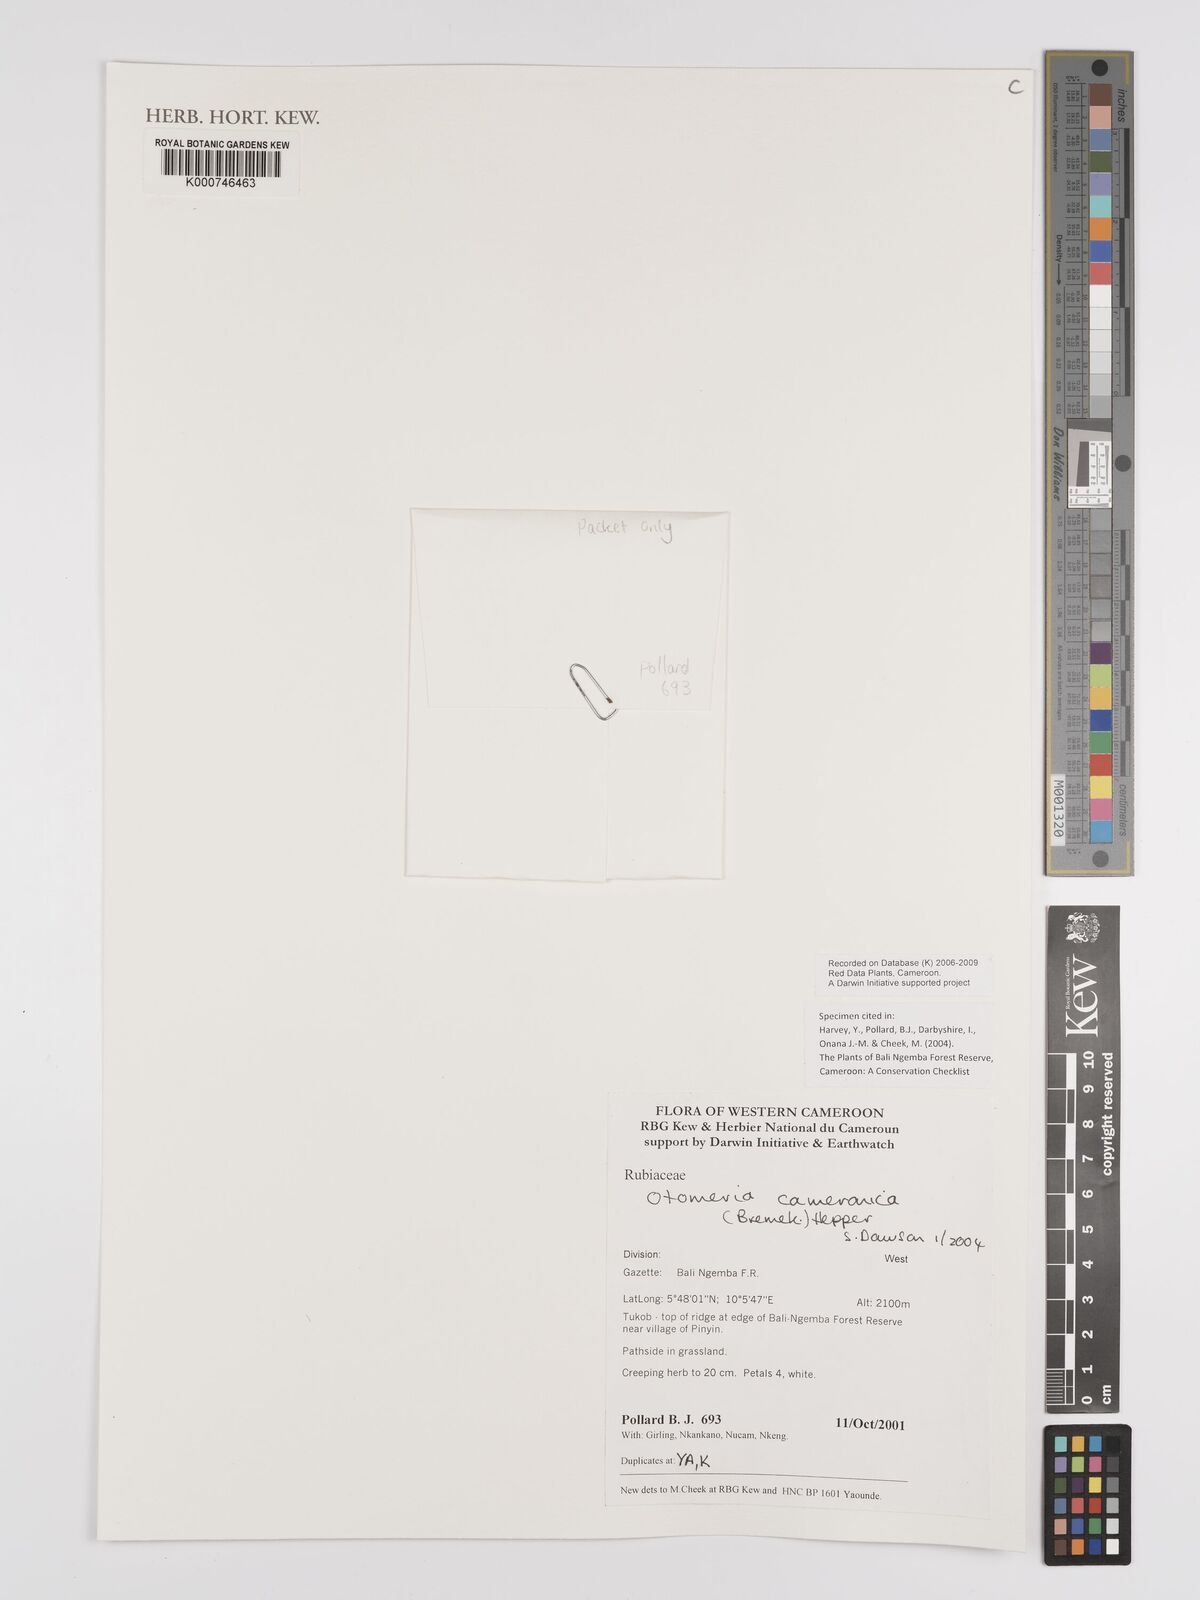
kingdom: Plantae
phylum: Tracheophyta
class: Magnoliopsida
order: Gentianales
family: Rubiaceae
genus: Otomeria
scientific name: Otomeria cameronica
